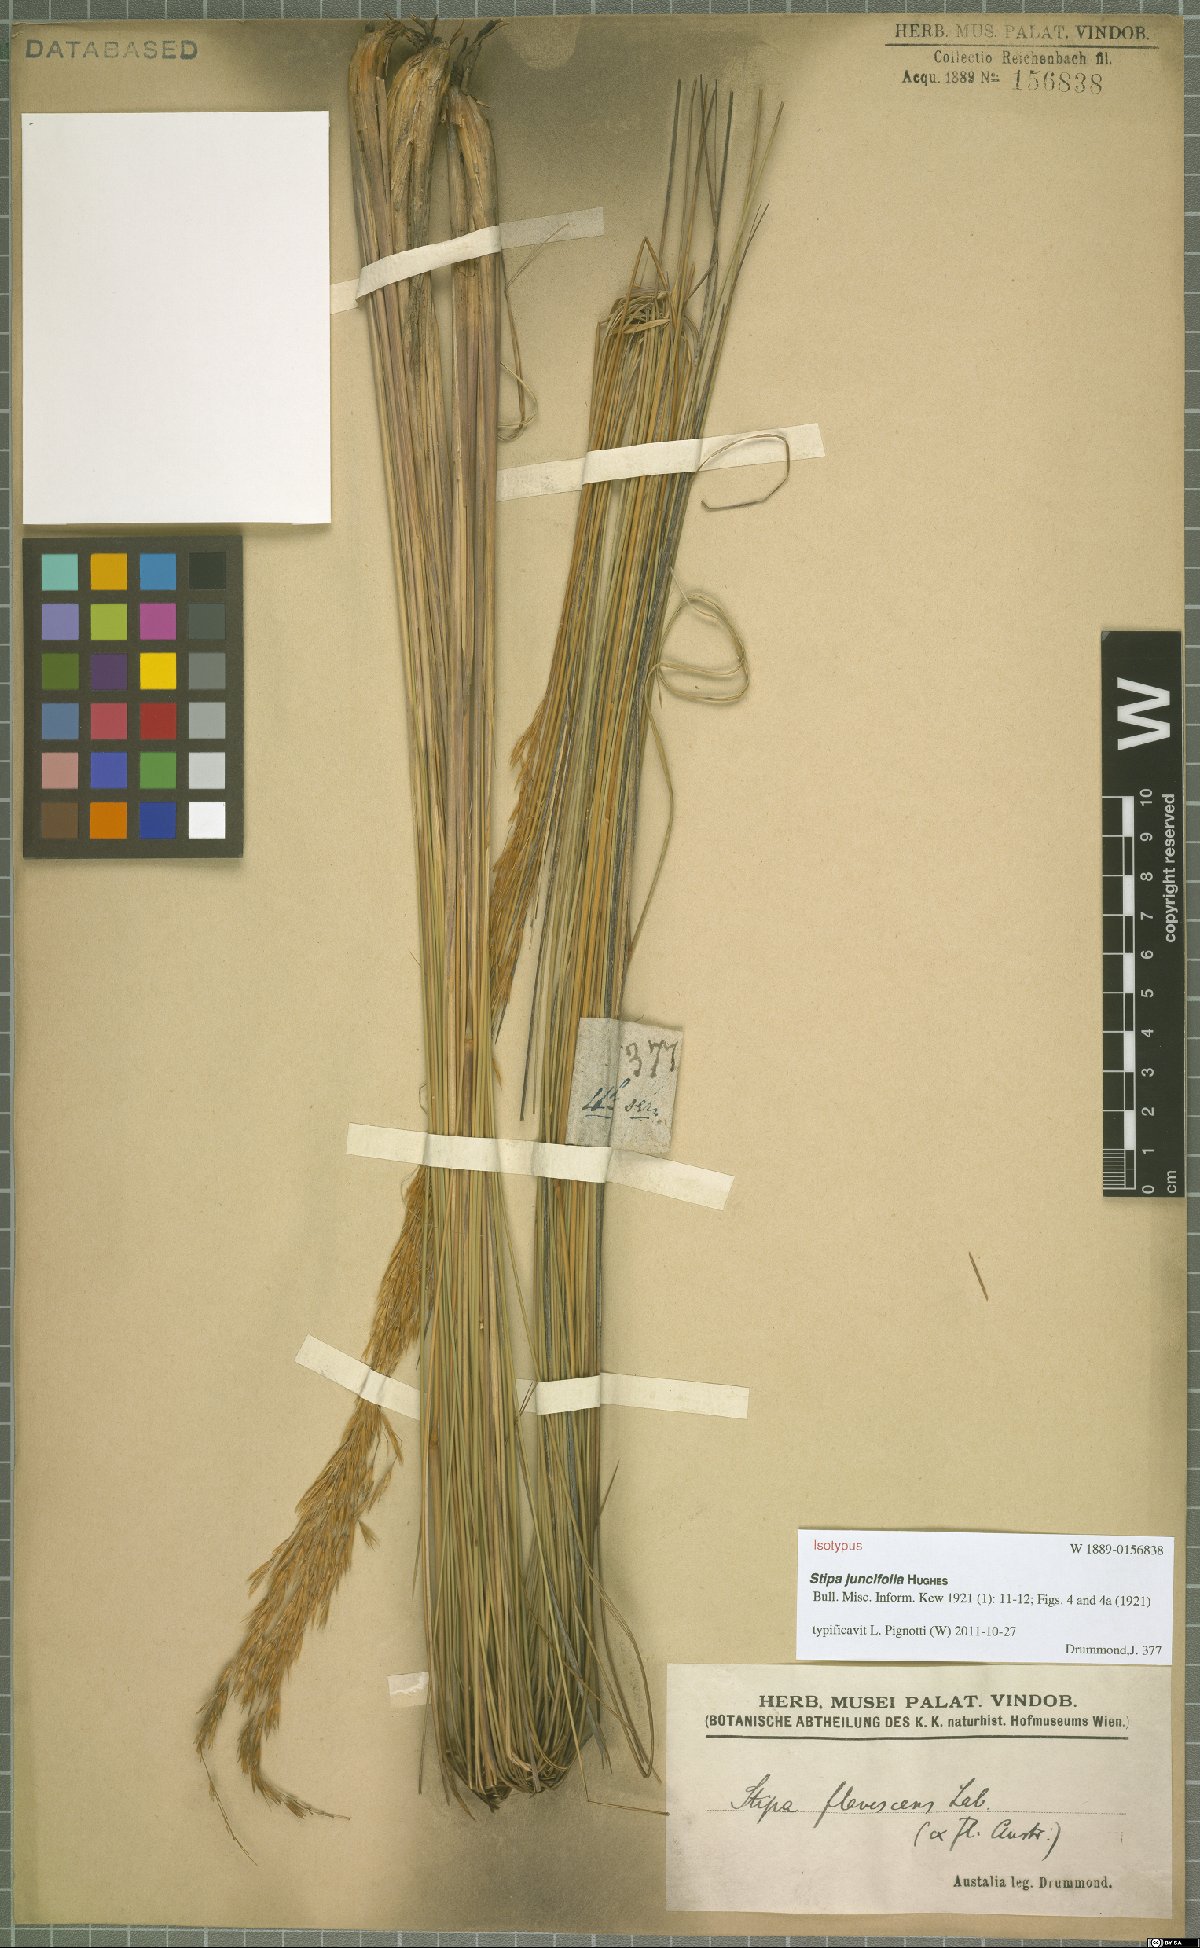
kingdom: Plantae
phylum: Tracheophyta
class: Liliopsida
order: Poales
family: Poaceae
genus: Austrostipa
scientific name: Austrostipa juncifolia
